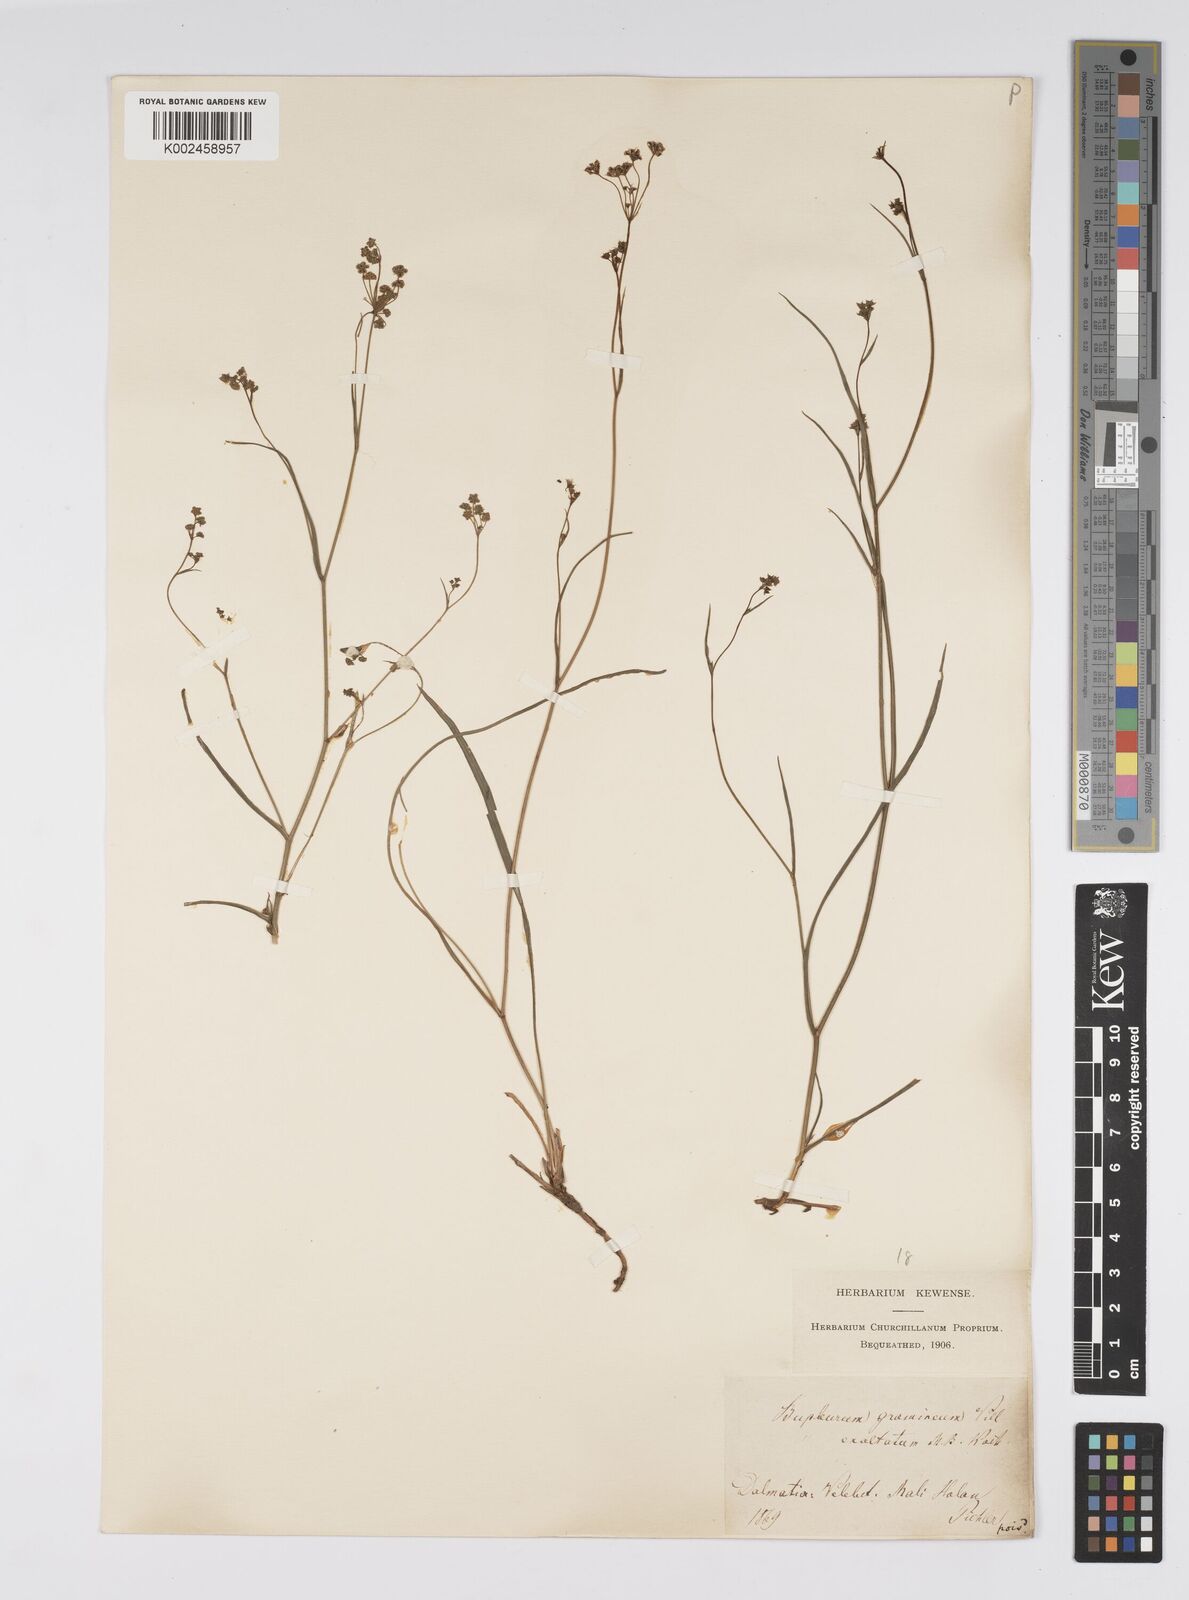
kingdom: Plantae
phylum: Tracheophyta
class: Magnoliopsida
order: Apiales
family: Apiaceae
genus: Bupleurum
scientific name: Bupleurum falcatum
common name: Sickle-leaved hare's-ear
